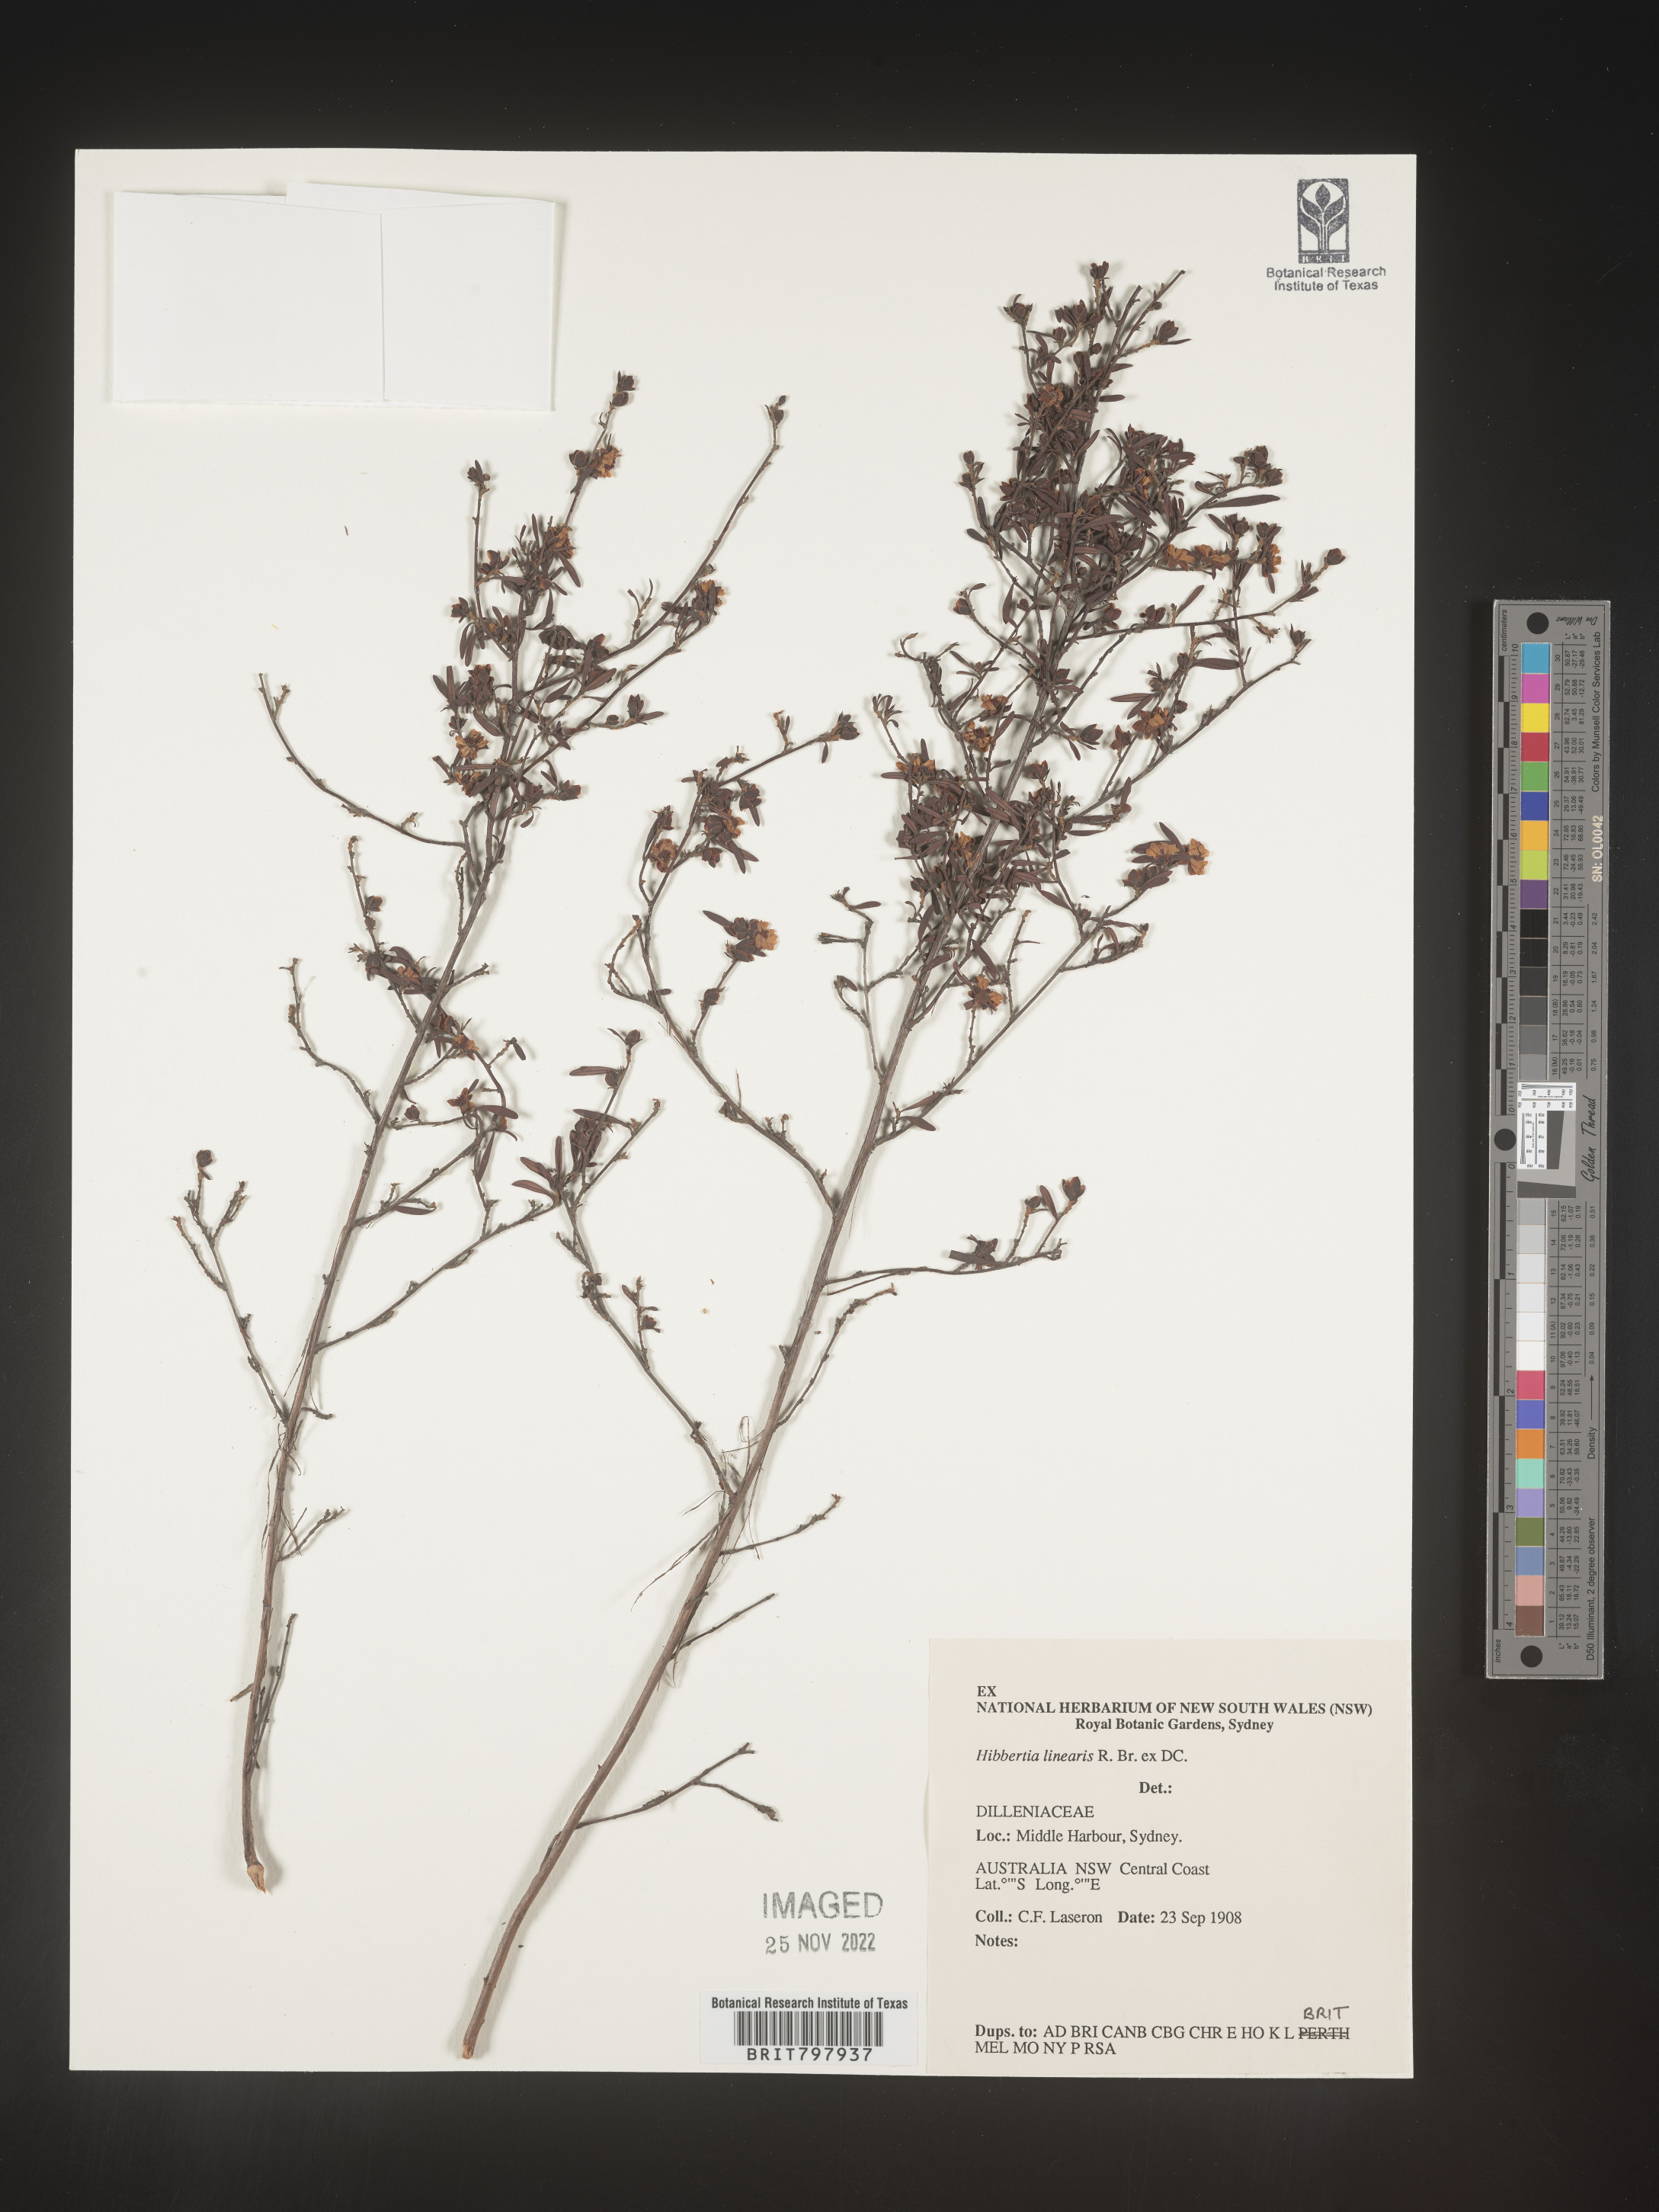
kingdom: Plantae
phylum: Tracheophyta
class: Magnoliopsida
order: Dilleniales
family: Dilleniaceae
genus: Hibbertia
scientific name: Hibbertia
